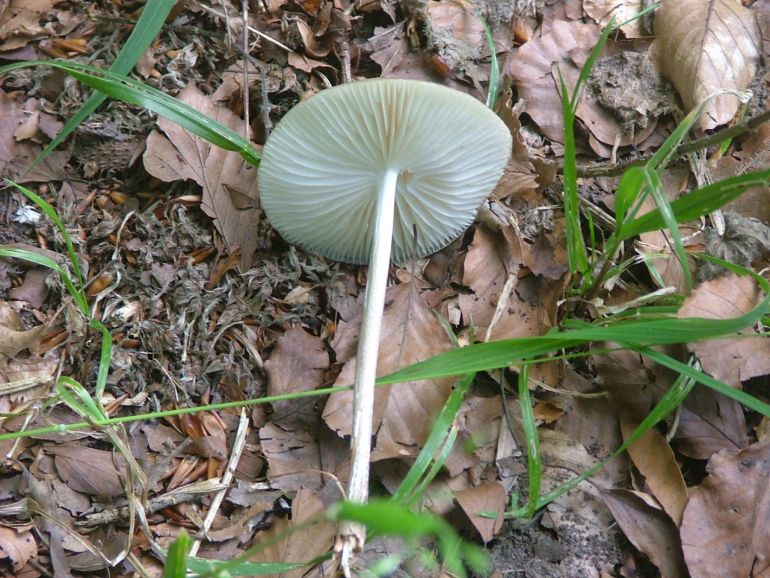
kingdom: Fungi
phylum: Basidiomycota
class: Agaricomycetes
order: Agaricales
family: Physalacriaceae
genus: Hymenopellis
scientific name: Hymenopellis radicata
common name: almindelig pælerodshat
